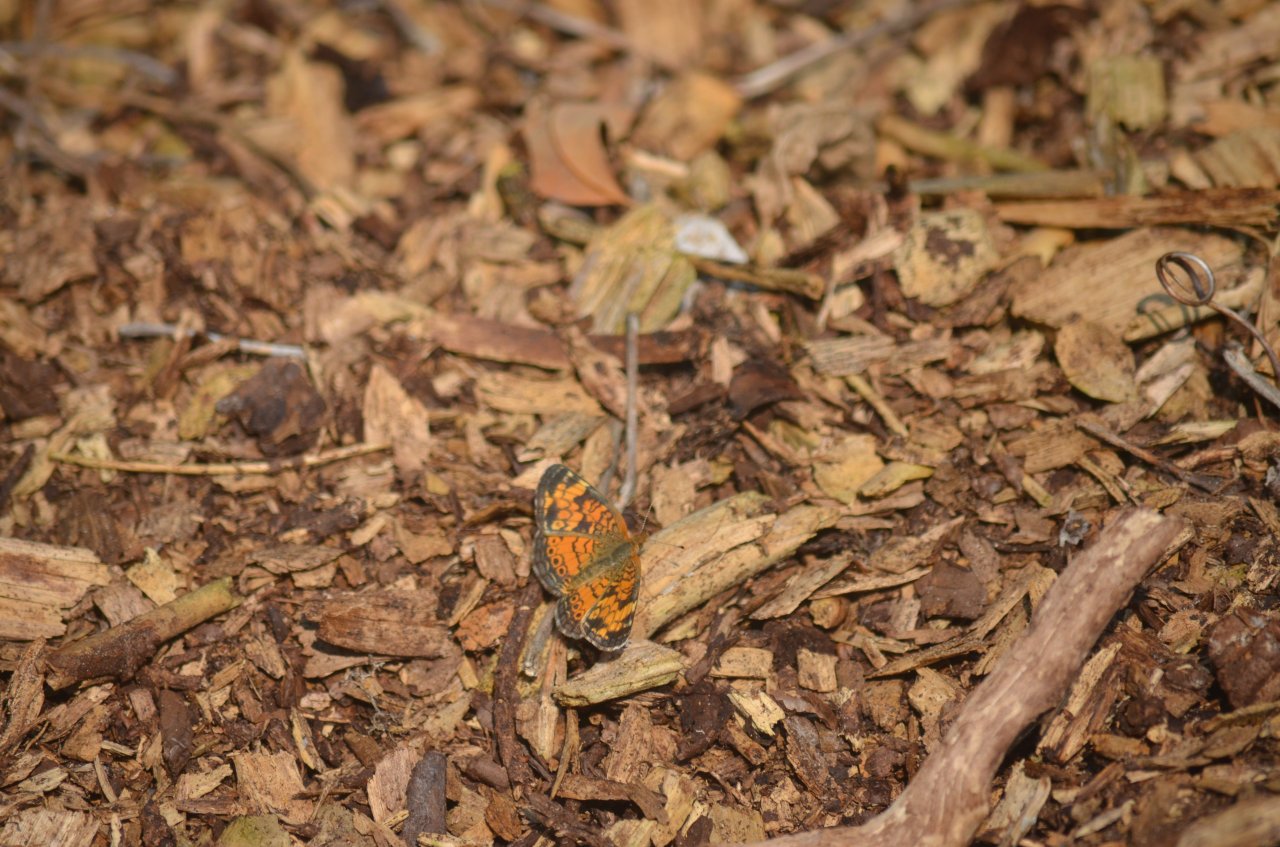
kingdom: Animalia
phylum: Arthropoda
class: Insecta
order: Lepidoptera
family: Nymphalidae
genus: Phyciodes
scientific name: Phyciodes tharos
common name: Northern Crescent
